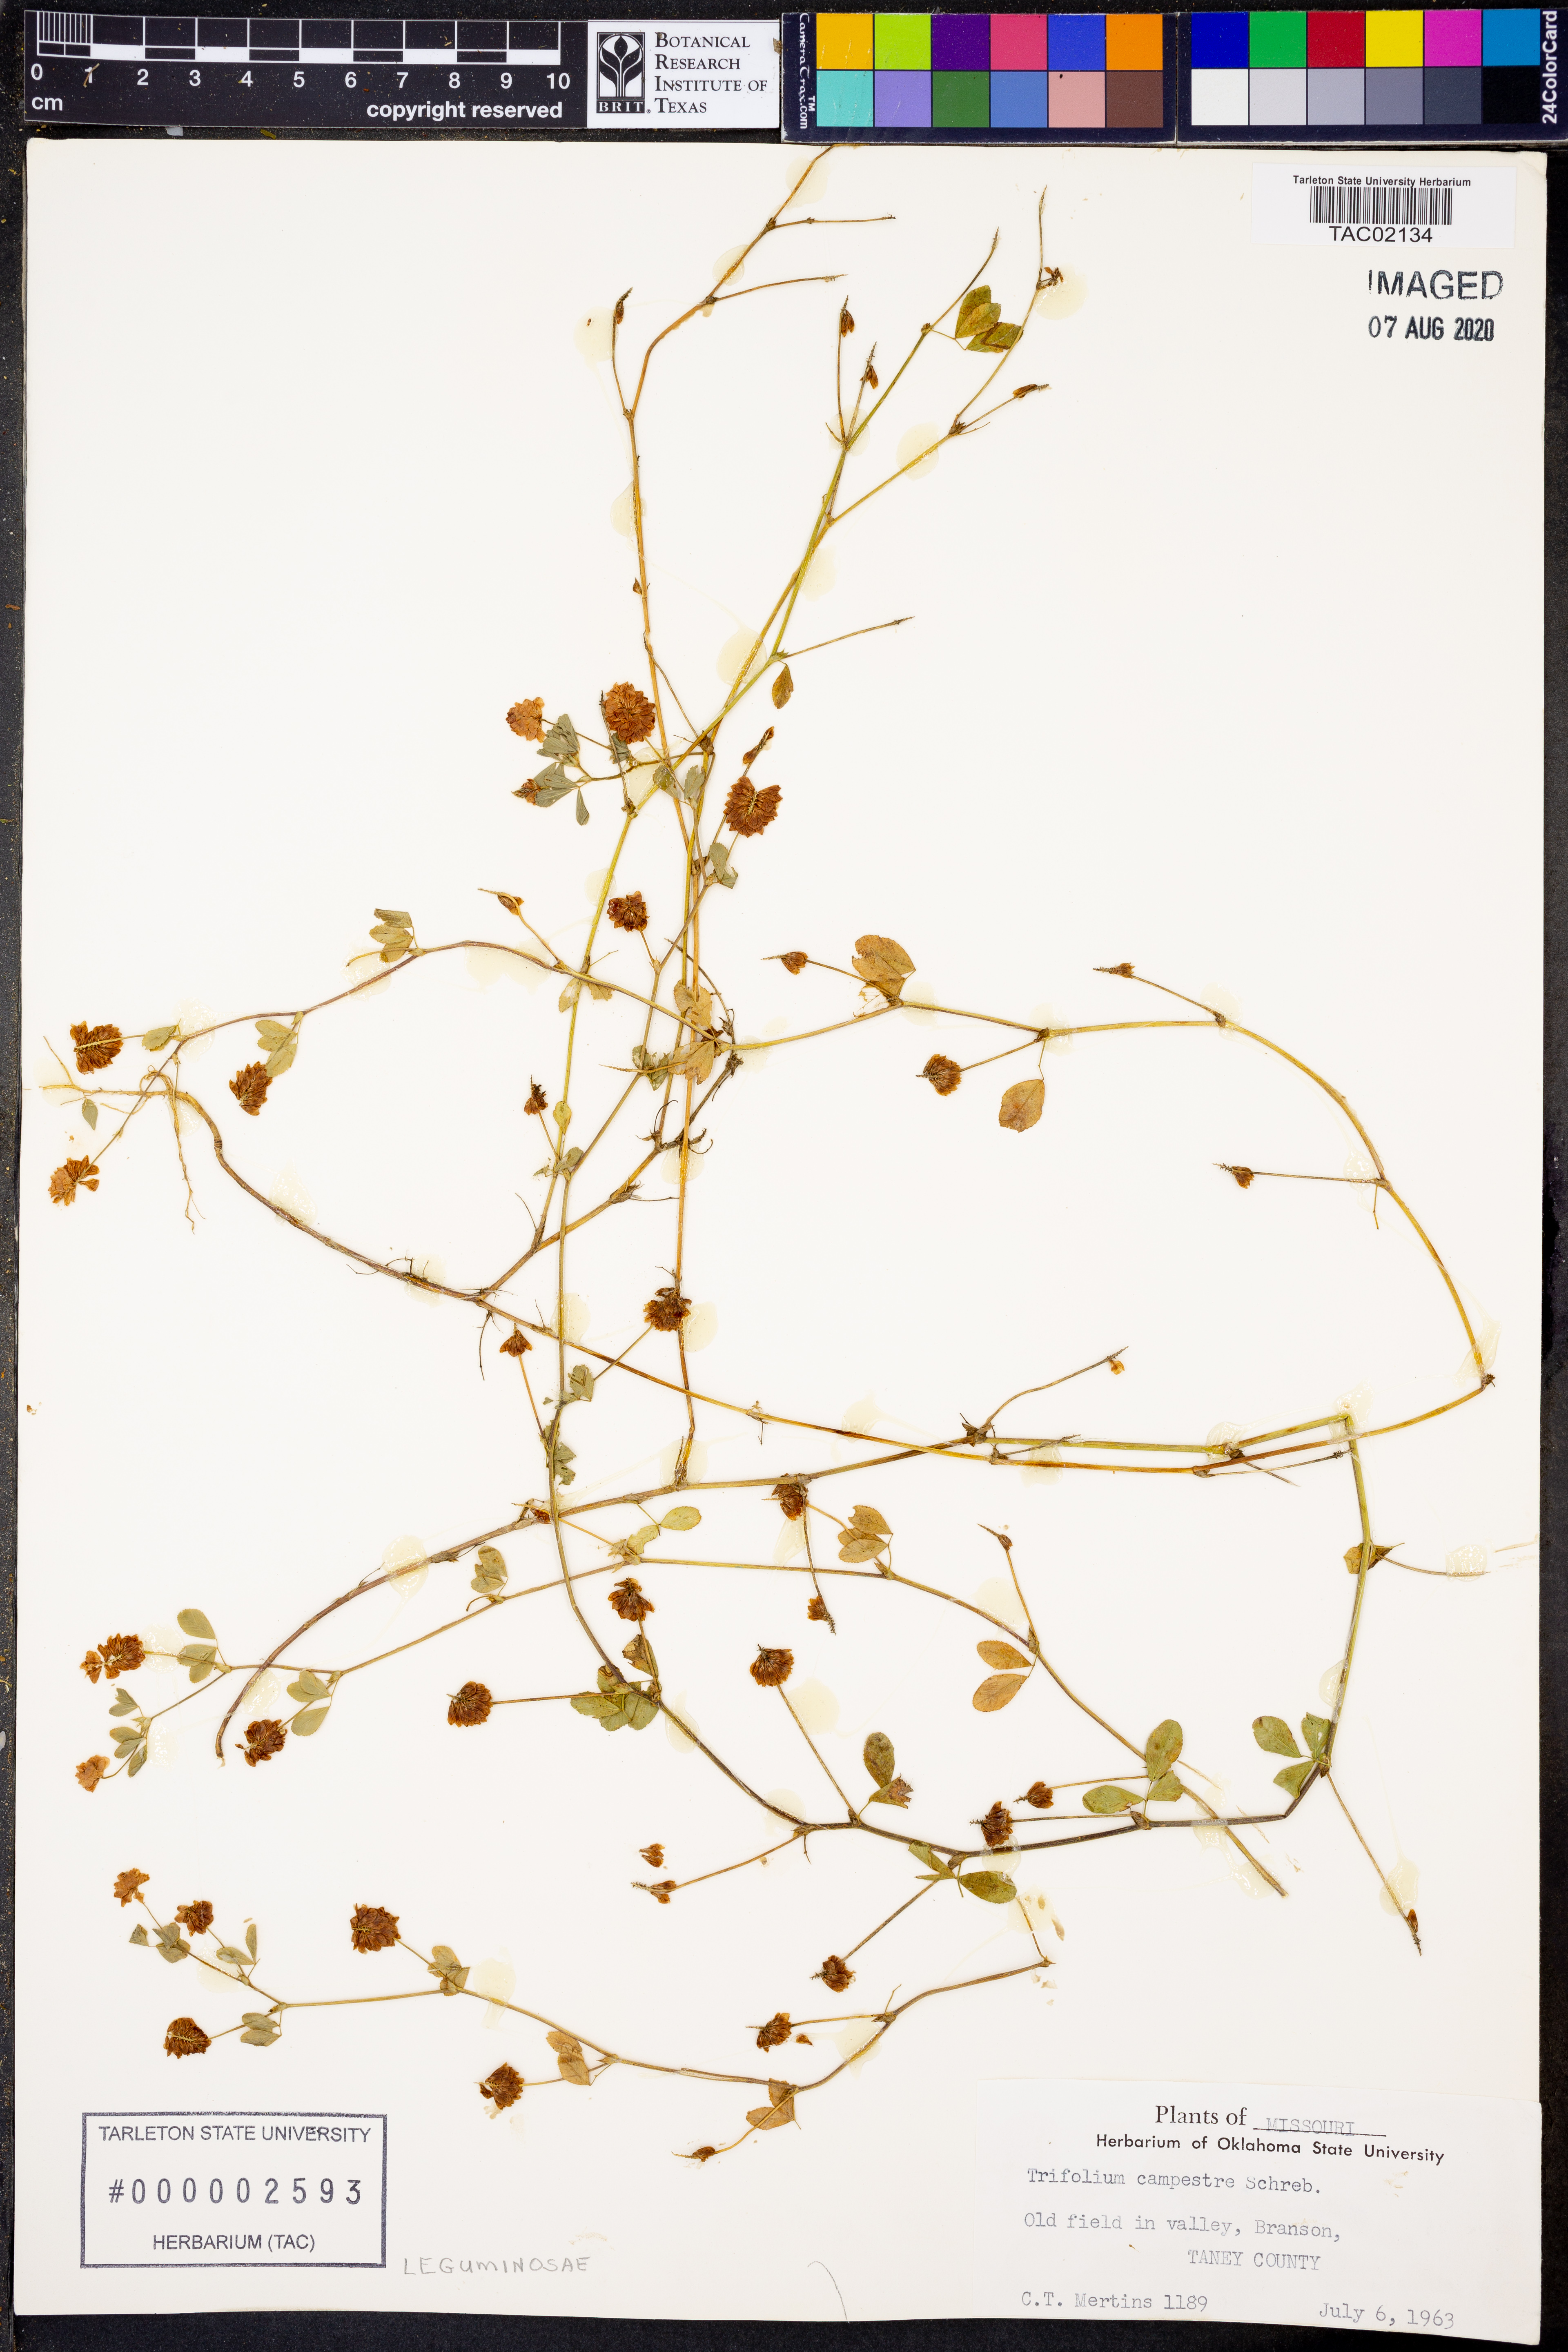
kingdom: Plantae
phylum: Tracheophyta
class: Magnoliopsida
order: Fabales
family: Fabaceae
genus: Trifolium
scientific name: Trifolium campestre
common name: Field clover
